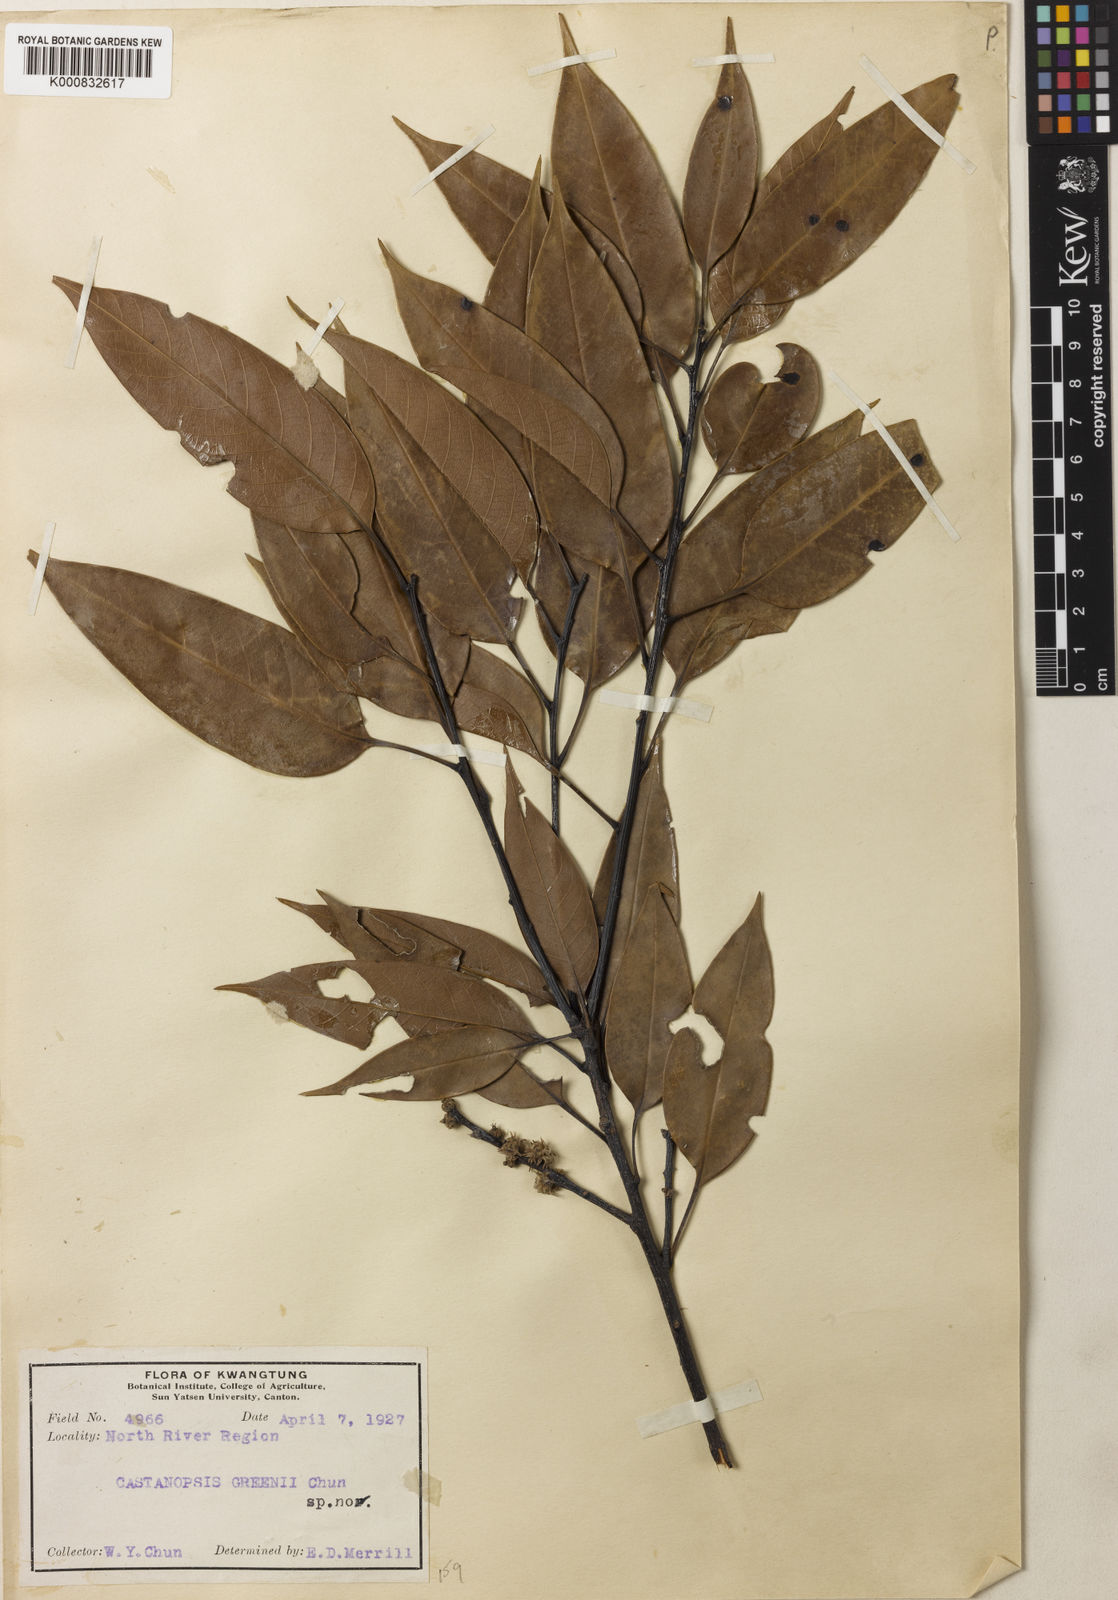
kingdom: Plantae
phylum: Tracheophyta
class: Magnoliopsida
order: Fagales
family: Fagaceae
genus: Castanopsis
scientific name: Castanopsis kawakamii
